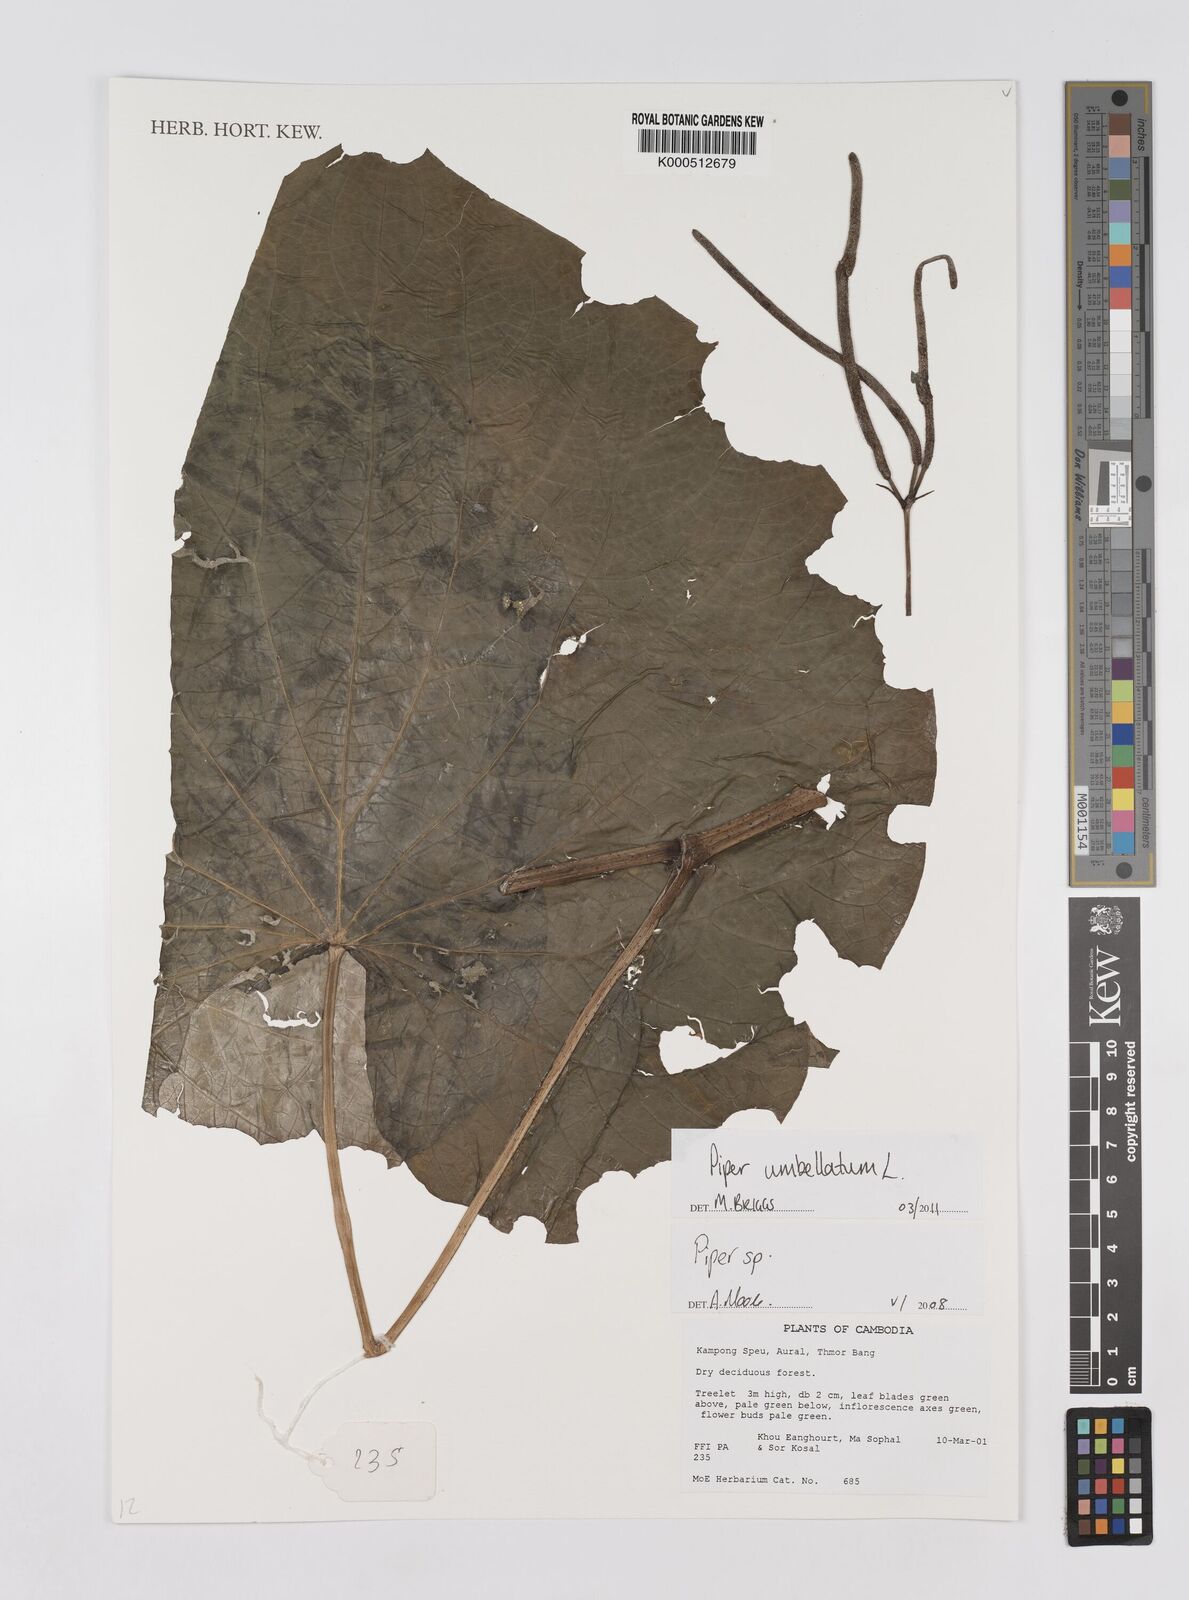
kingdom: Plantae
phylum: Tracheophyta
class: Magnoliopsida
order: Piperales
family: Piperaceae
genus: Piper
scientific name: Piper umbellatum
